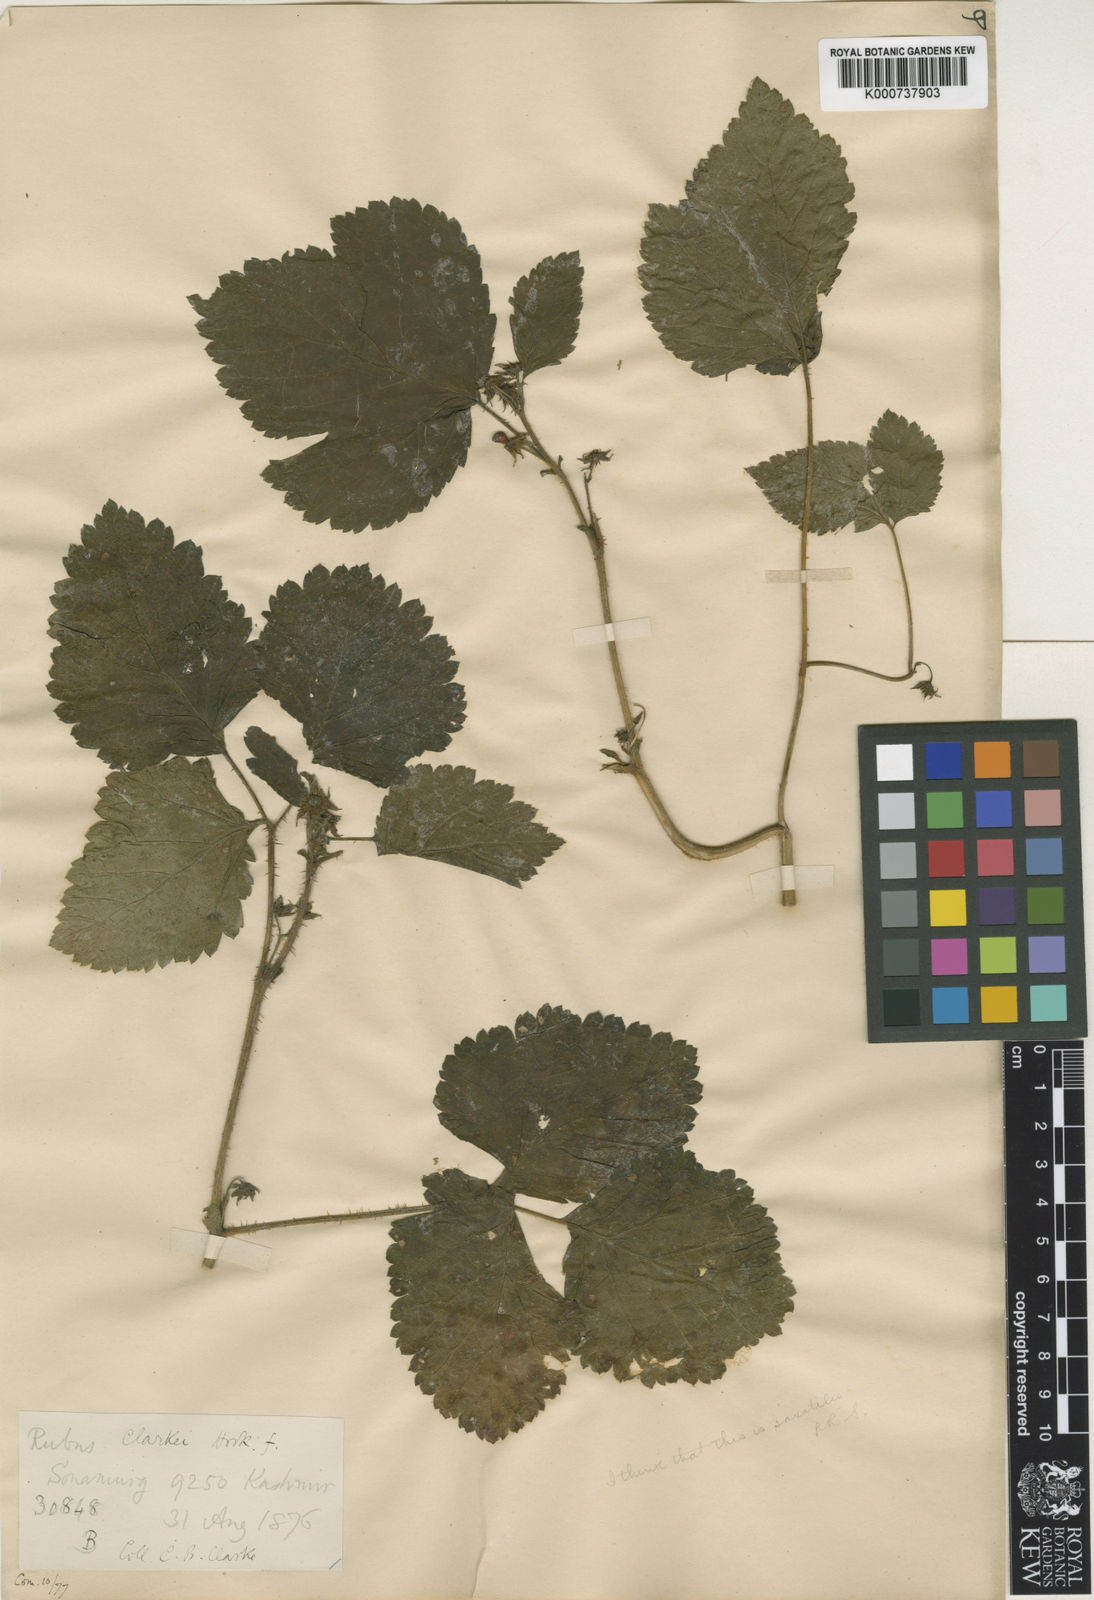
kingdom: Plantae
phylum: Tracheophyta
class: Magnoliopsida
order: Rosales
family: Rosaceae
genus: Rubus
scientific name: Rubus saxatilis
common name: Stone bramble
